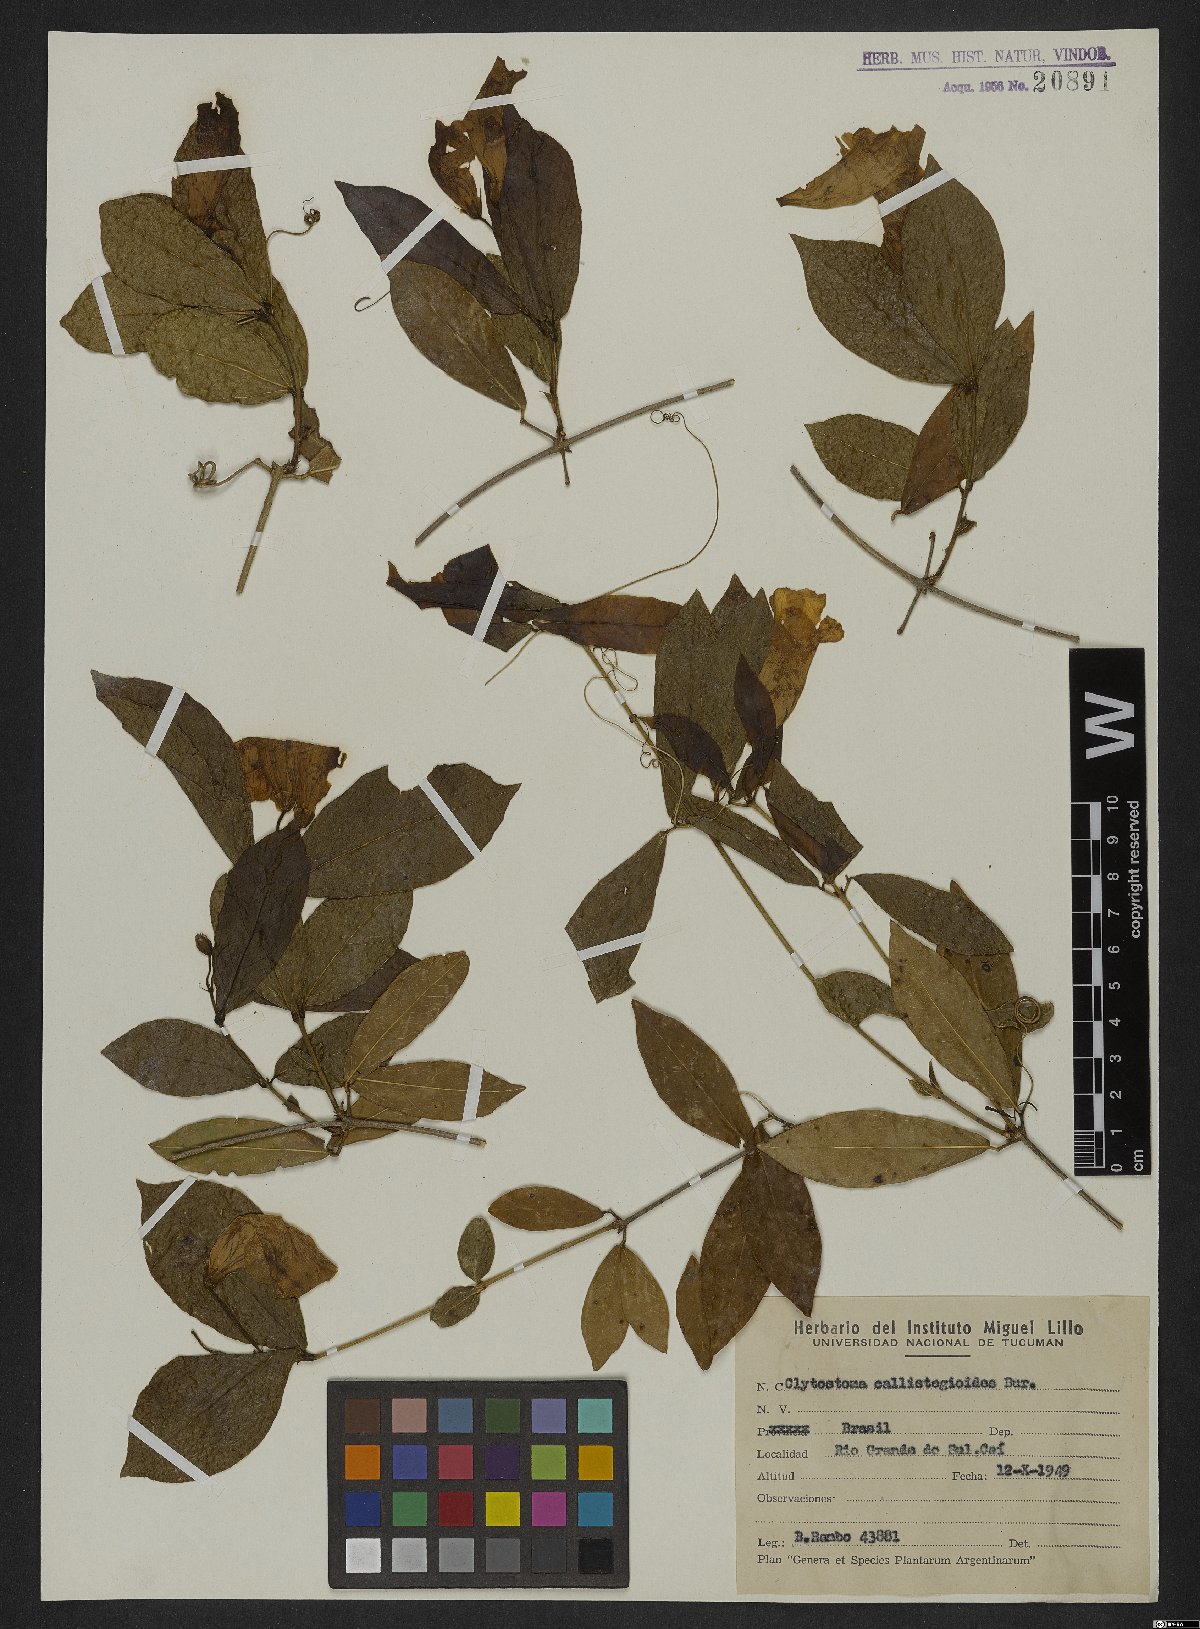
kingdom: Plantae
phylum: Tracheophyta
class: Magnoliopsida
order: Lamiales
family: Bignoniaceae
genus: Bignonia
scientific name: Bignonia callistegioides
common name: Argentine trumpetvine
